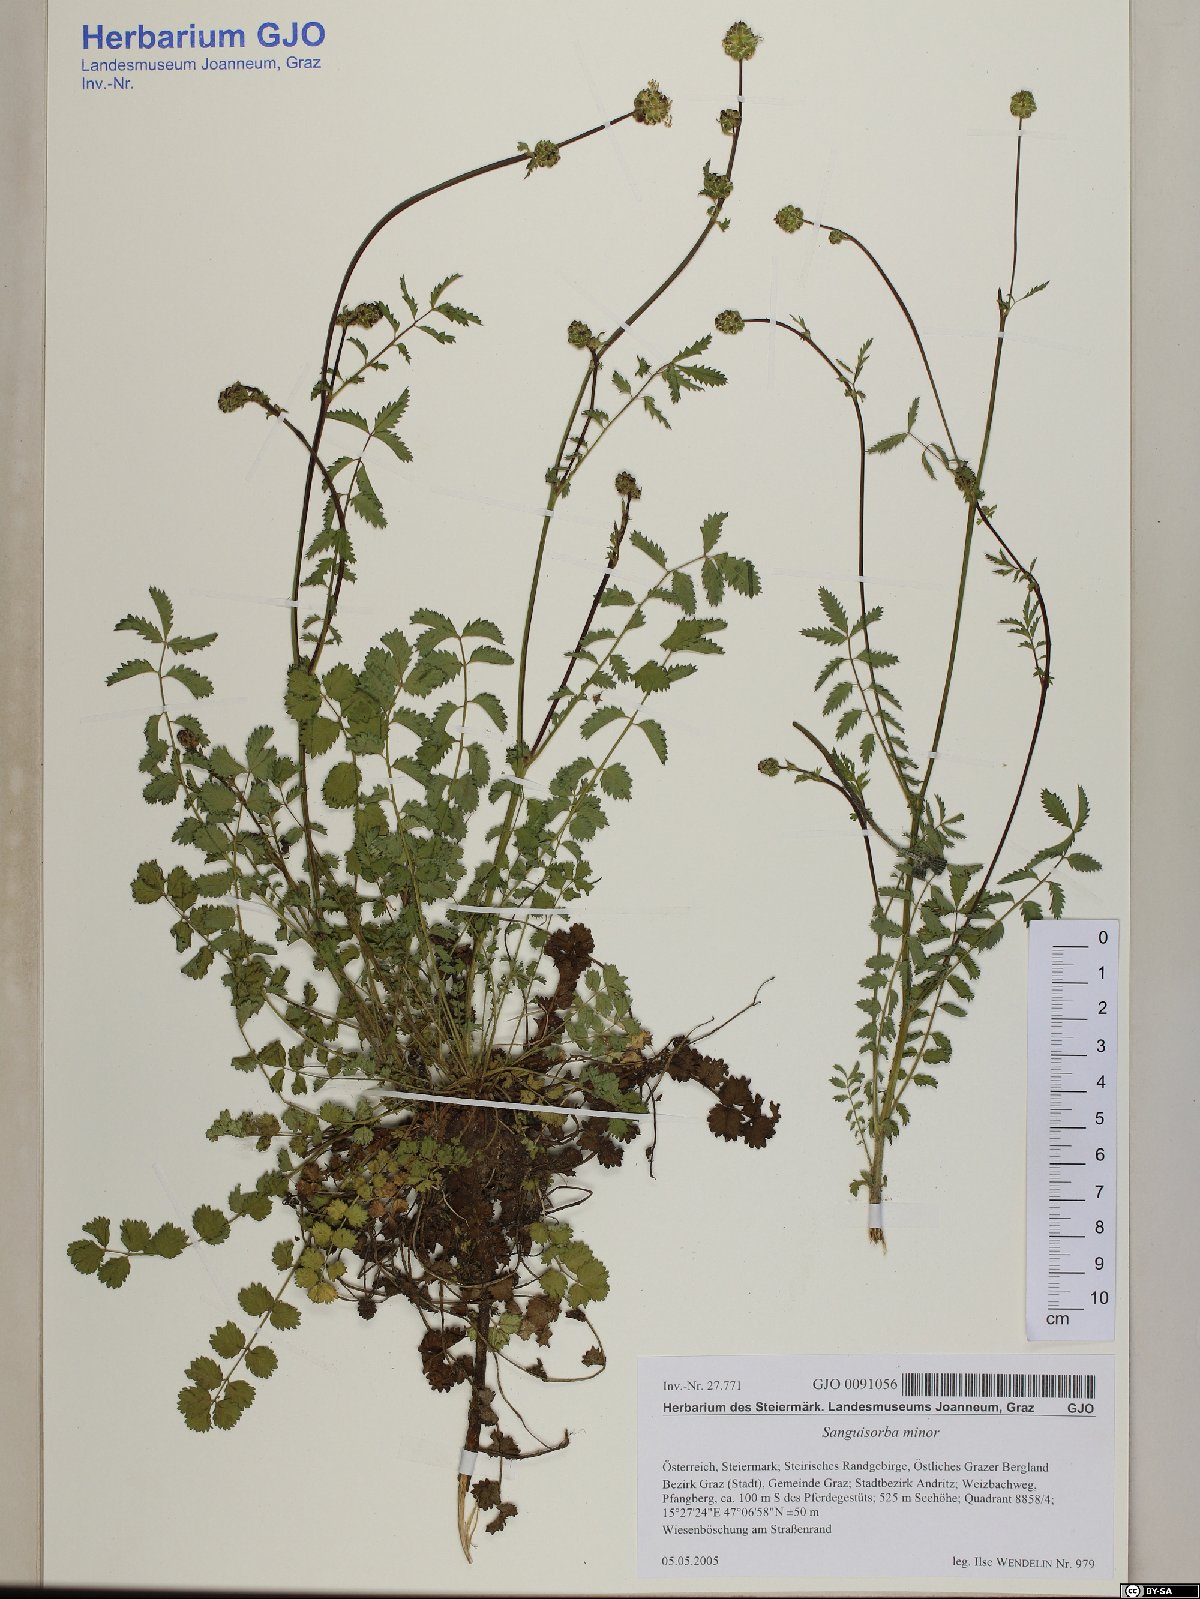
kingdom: Plantae
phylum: Tracheophyta
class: Magnoliopsida
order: Rosales
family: Rosaceae
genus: Poterium
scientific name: Poterium sanguisorba
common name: Salad burnet
